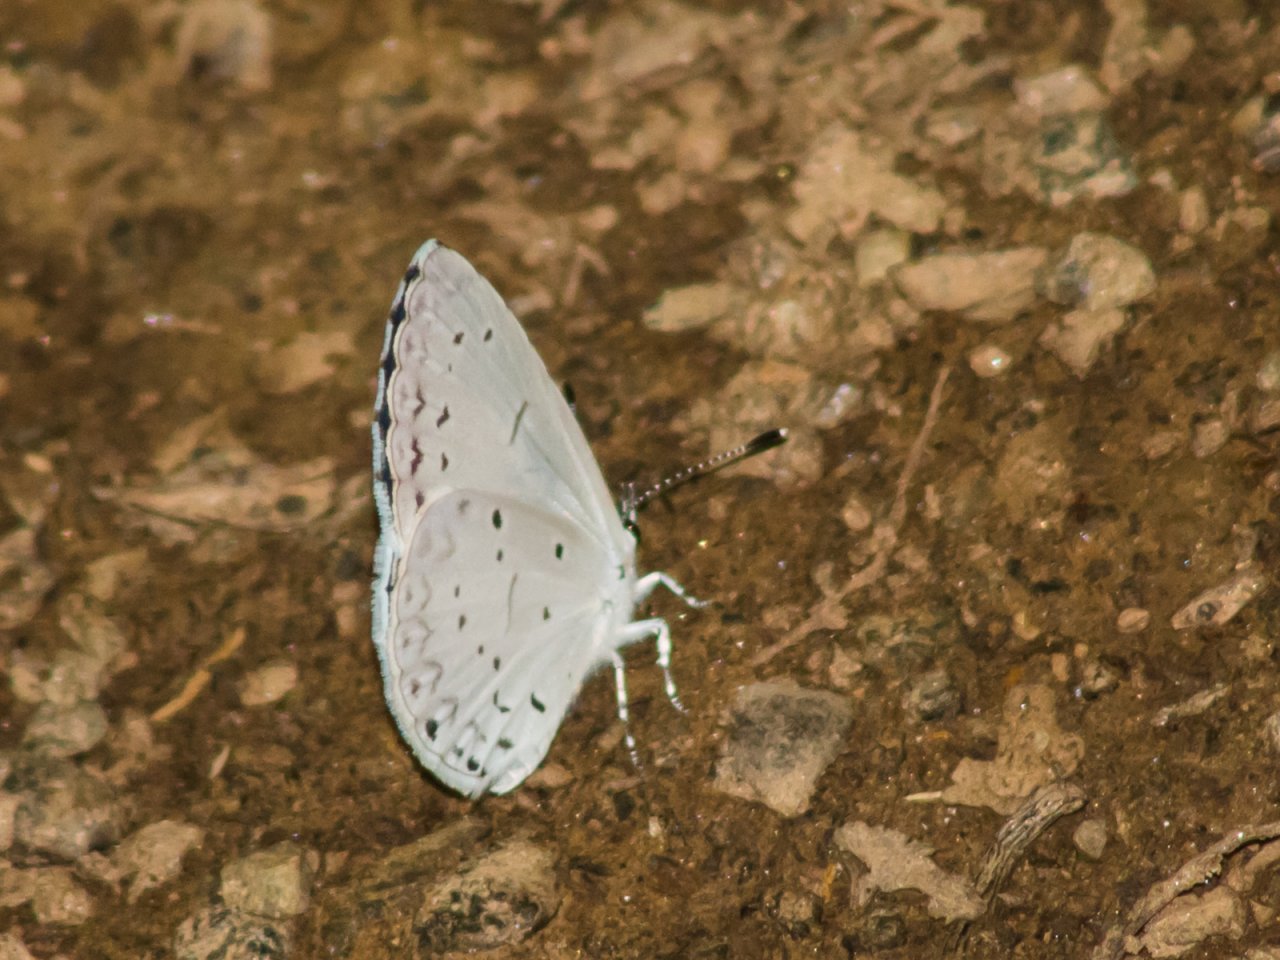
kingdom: Animalia
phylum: Arthropoda
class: Insecta
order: Lepidoptera
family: Lycaenidae
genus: Cyaniris
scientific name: Cyaniris neglecta
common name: Summer Azure
